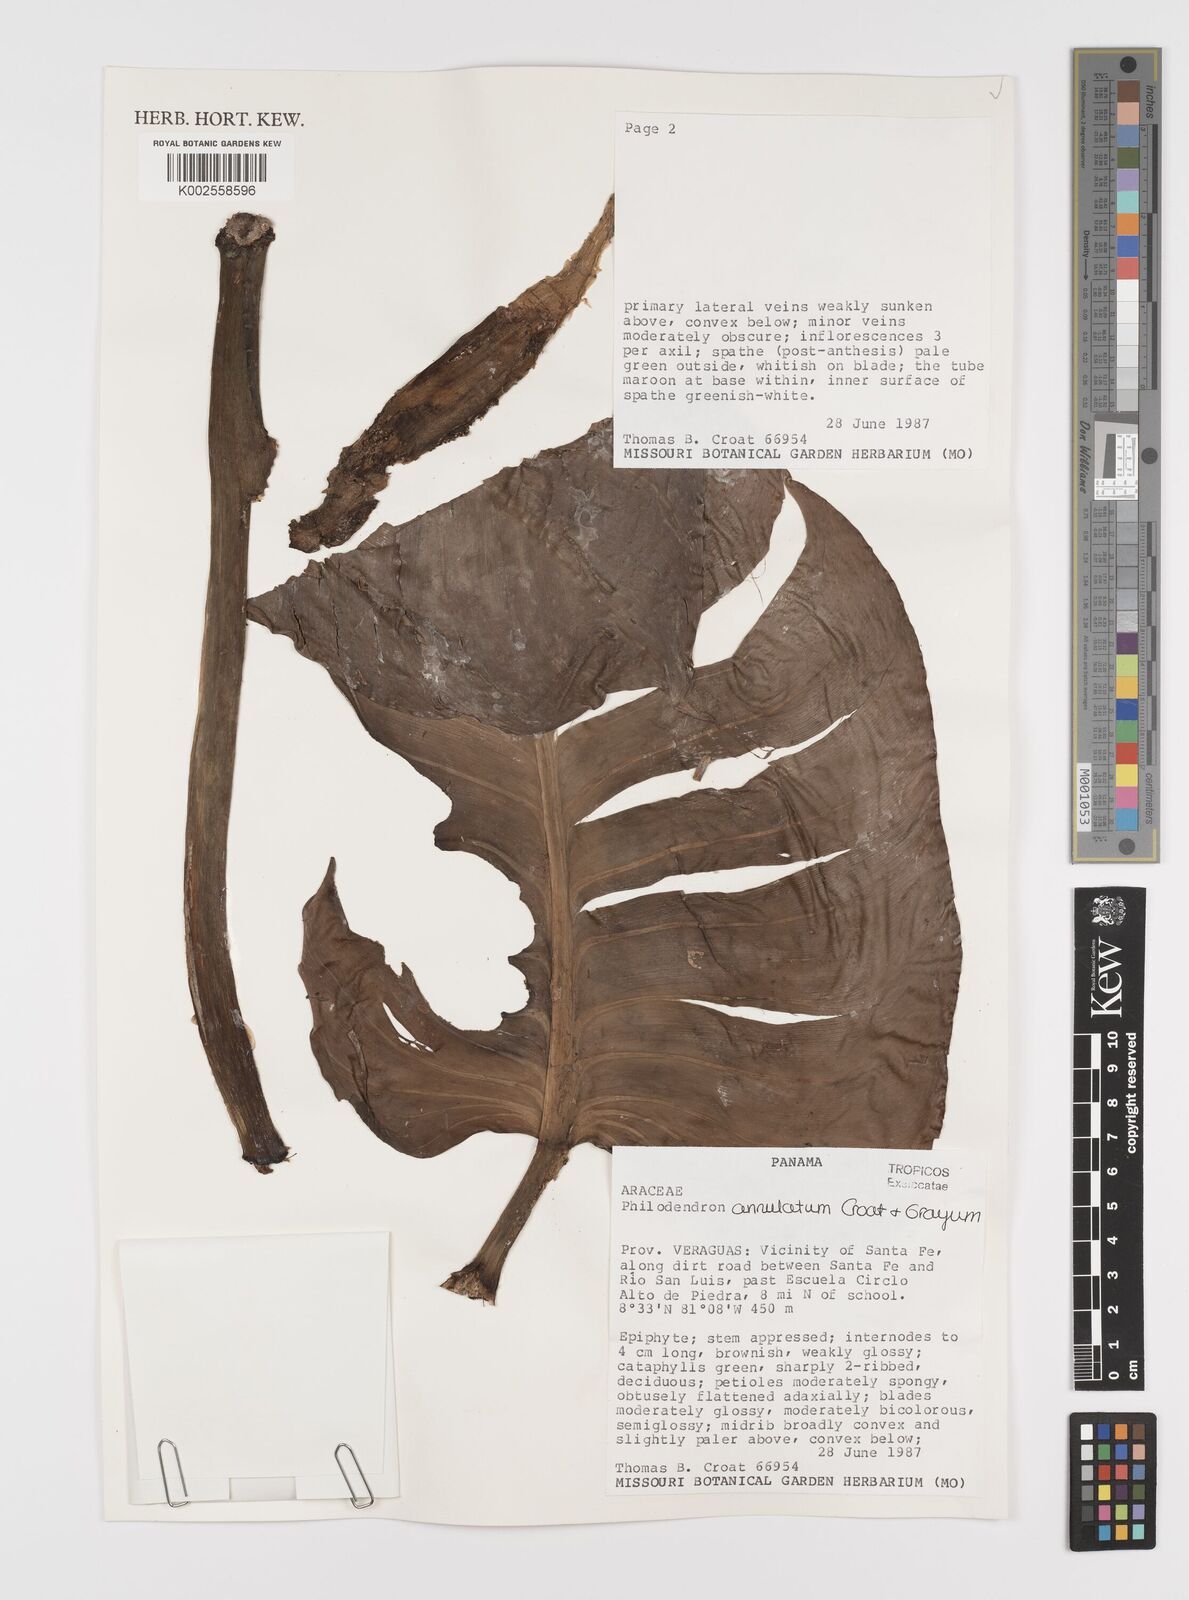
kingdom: Plantae
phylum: Tracheophyta
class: Liliopsida
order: Alismatales
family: Araceae
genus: Philodendron
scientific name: Philodendron annulatum
